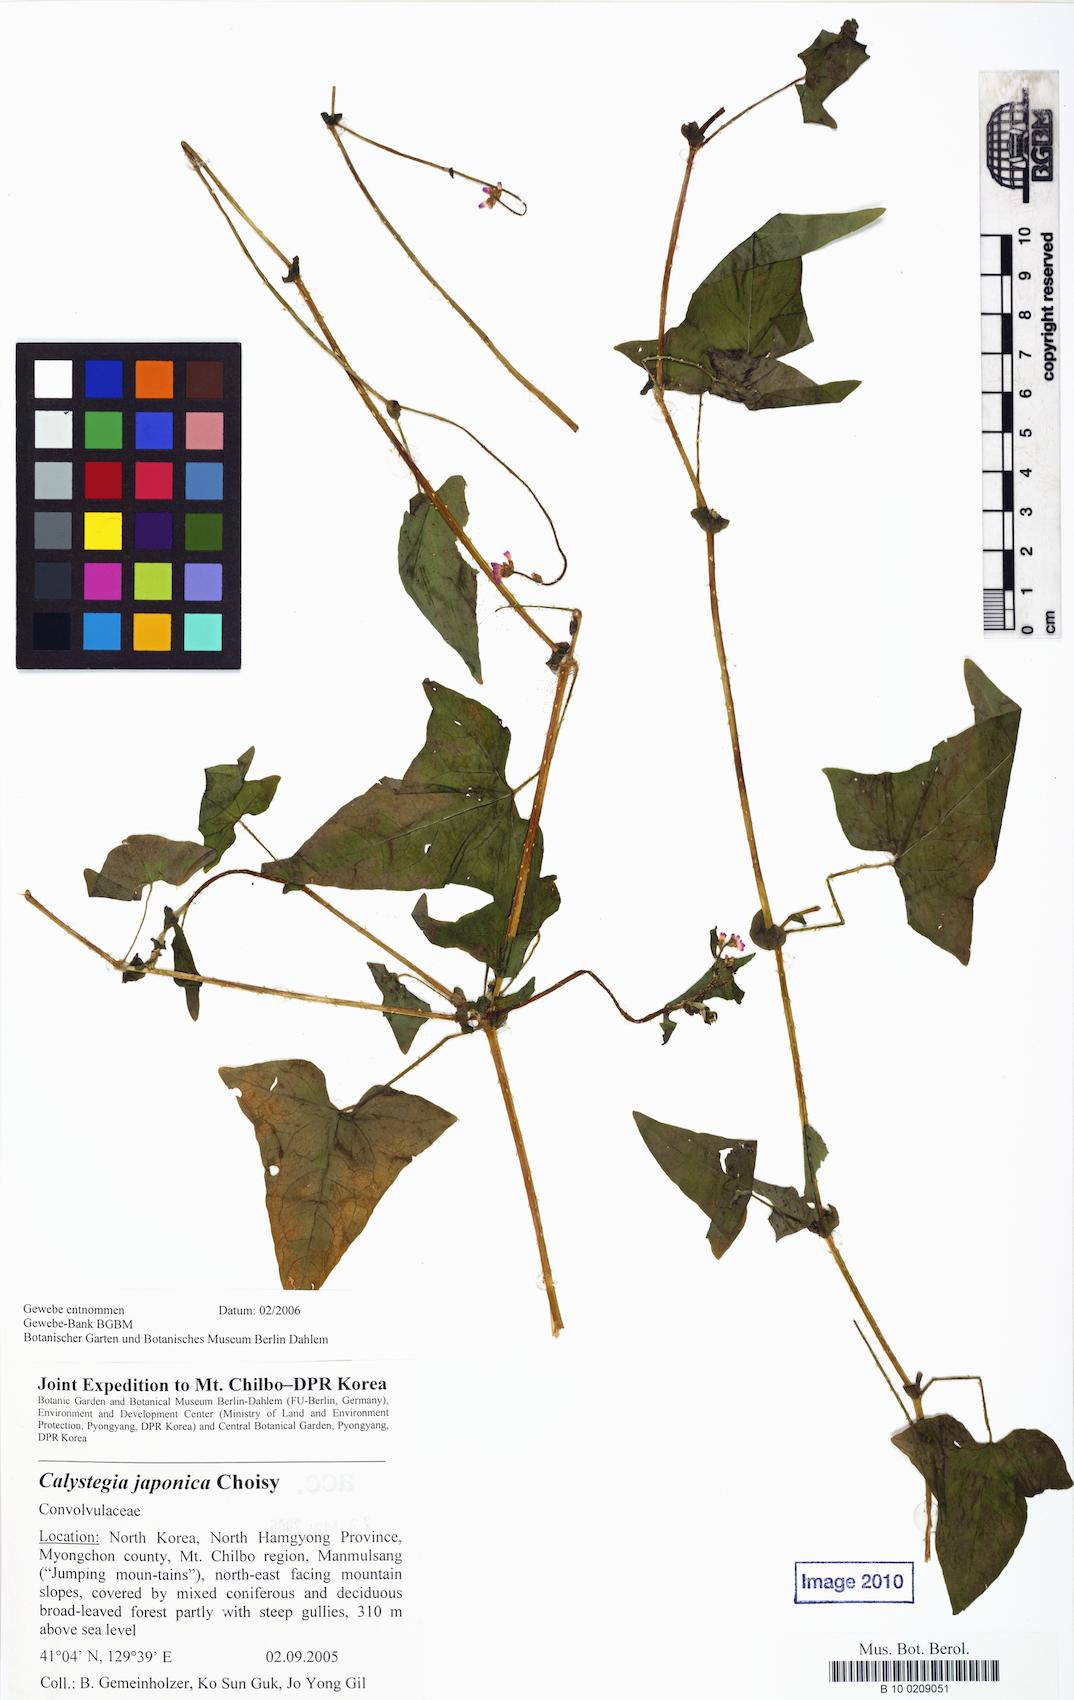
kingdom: Plantae
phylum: Tracheophyta
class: Magnoliopsida
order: Solanales
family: Convolvulaceae
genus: Calystegia
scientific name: Calystegia pubescens
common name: Japanese bindweed
